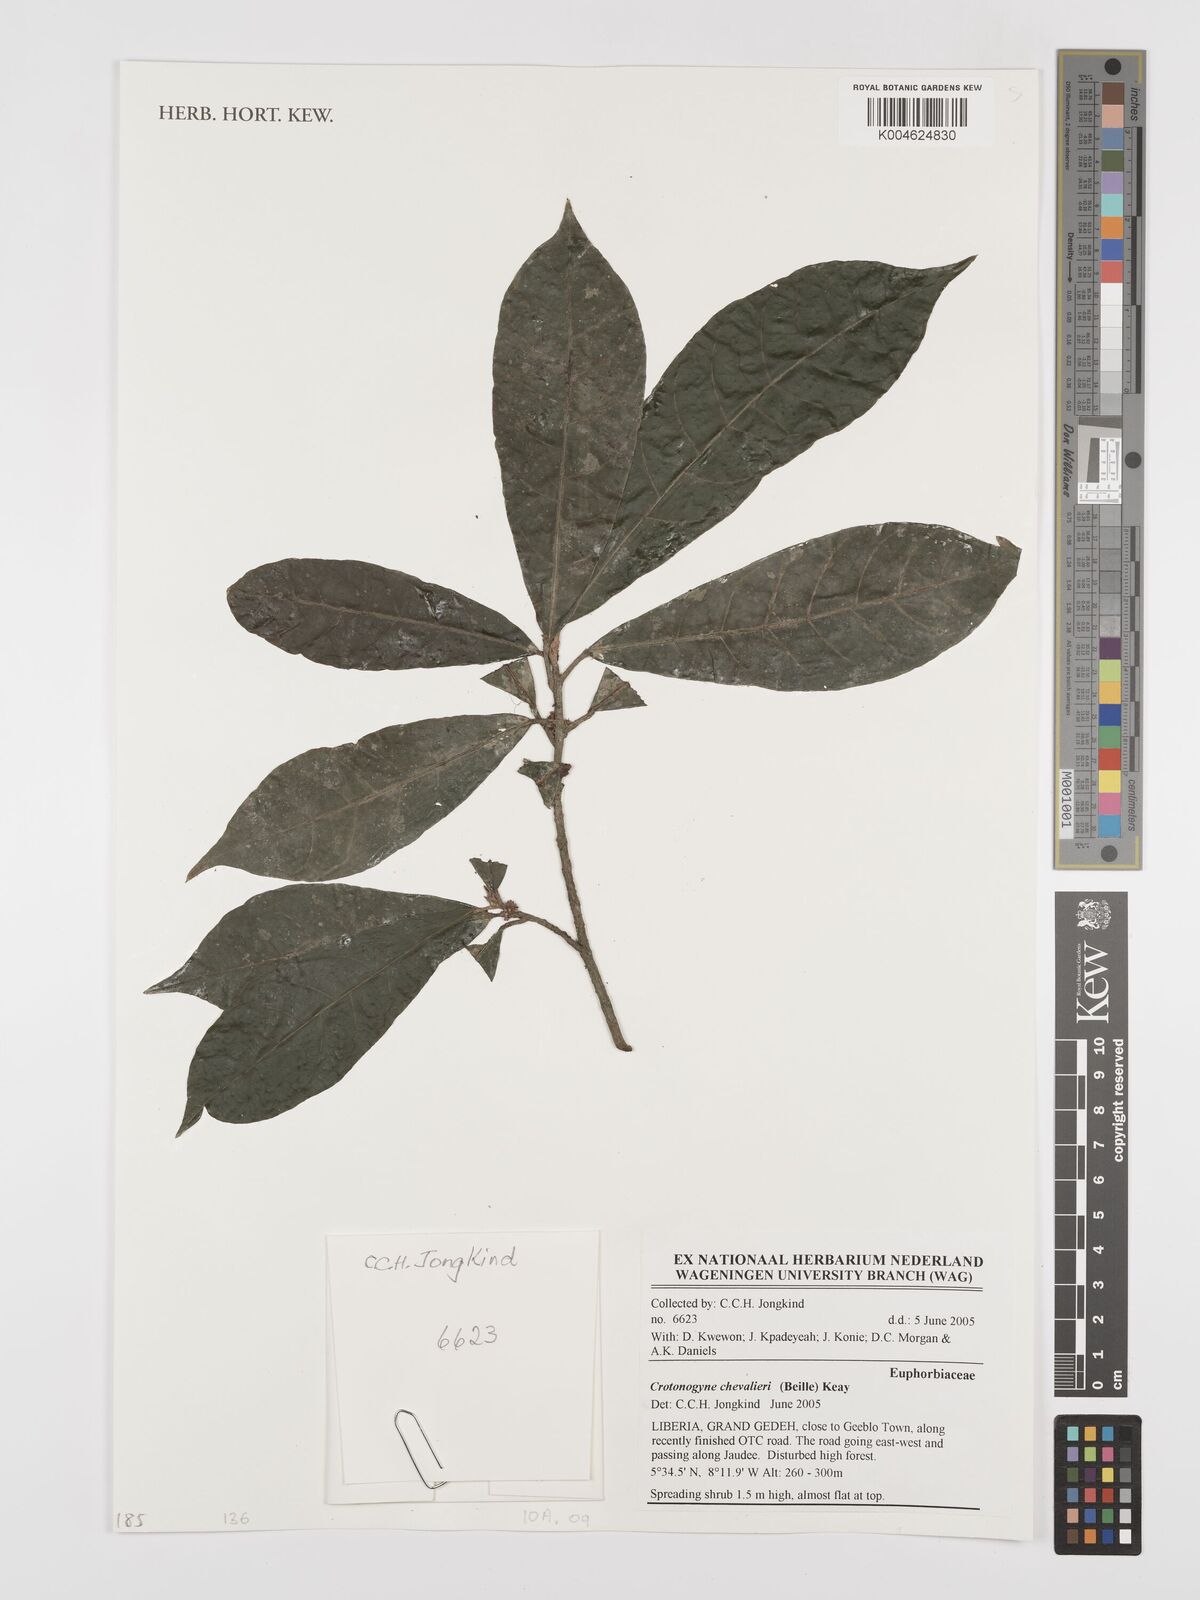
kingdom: Plantae
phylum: Tracheophyta
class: Magnoliopsida
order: Malpighiales
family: Euphorbiaceae
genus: Crotonogyne
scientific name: Crotonogyne caterviflora
